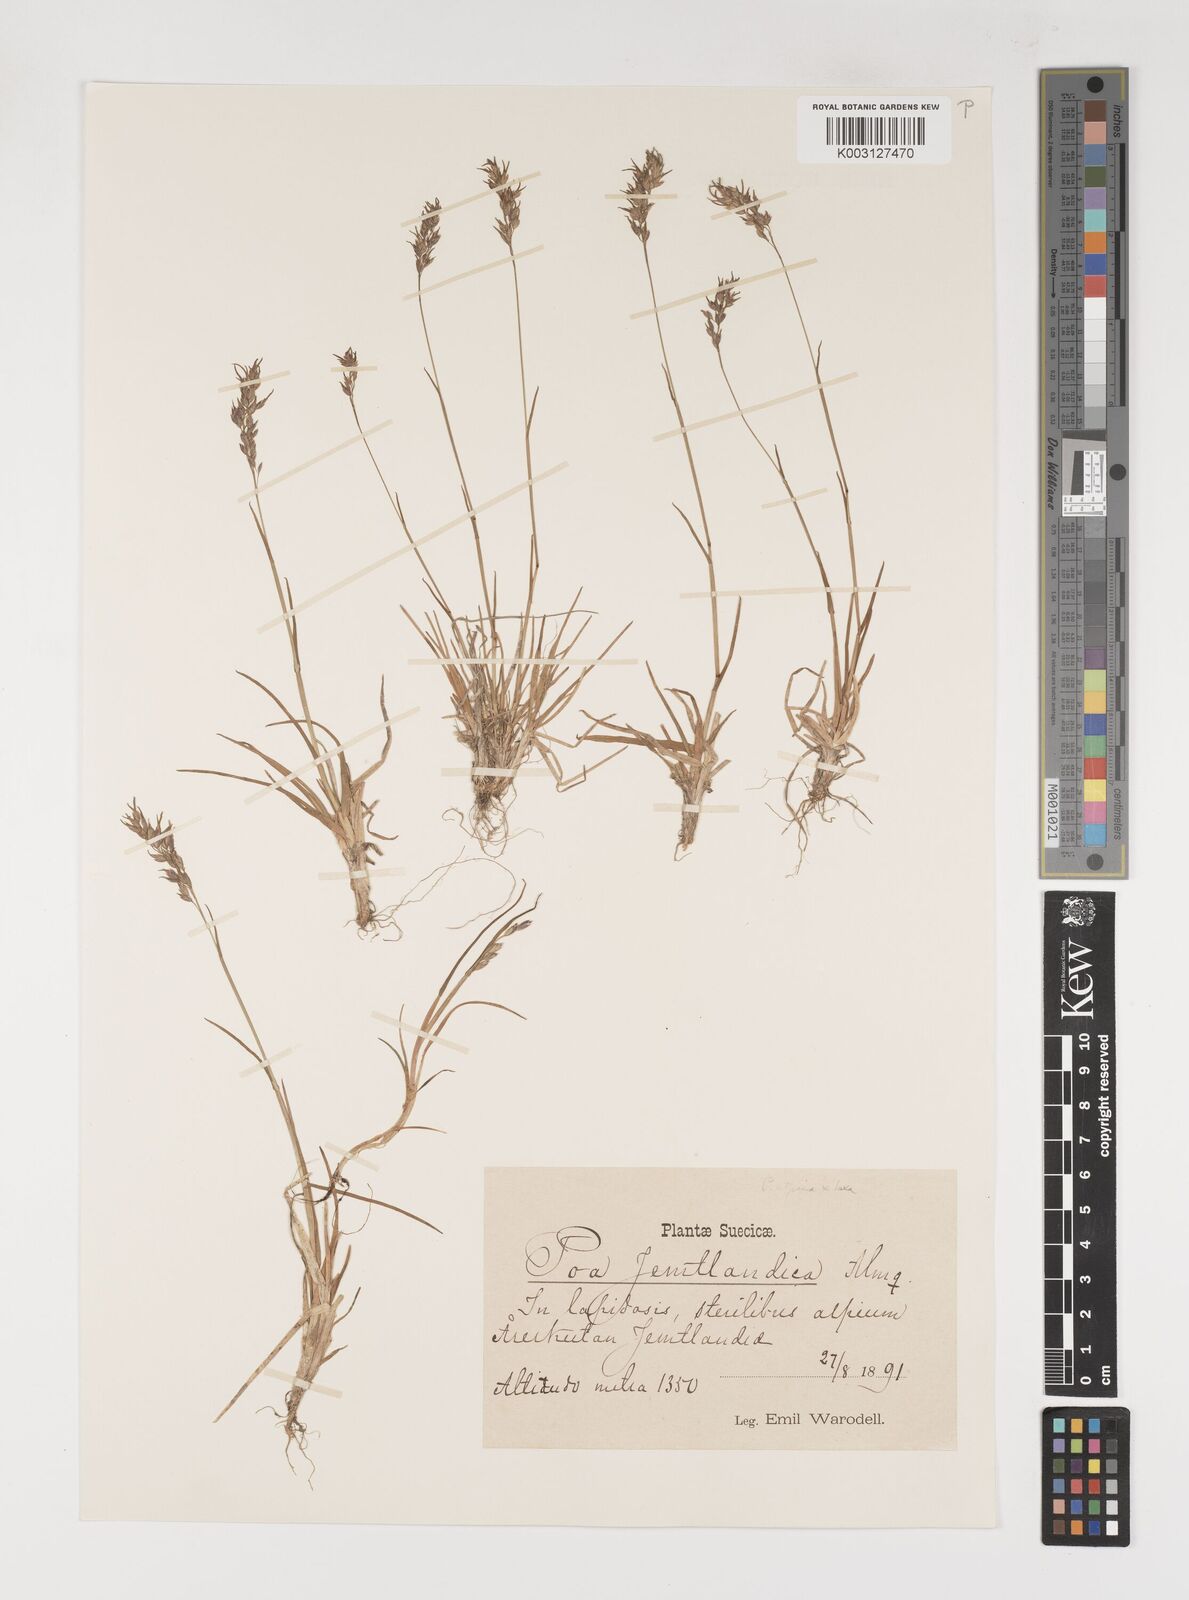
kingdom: Plantae
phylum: Tracheophyta
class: Liliopsida
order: Poales
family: Poaceae
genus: Poa
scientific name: Poa jemtlandica
